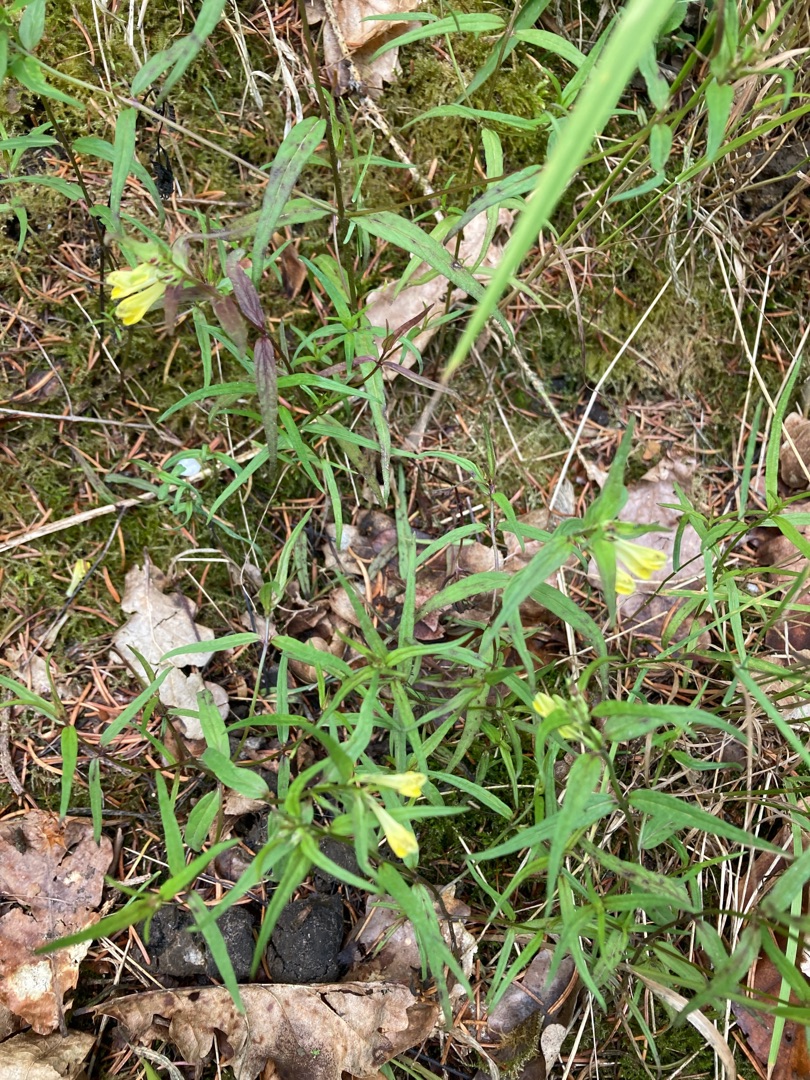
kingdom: Plantae
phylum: Tracheophyta
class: Magnoliopsida
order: Lamiales
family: Orobanchaceae
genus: Melampyrum
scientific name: Melampyrum pratense
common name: Almindelig kohvede
